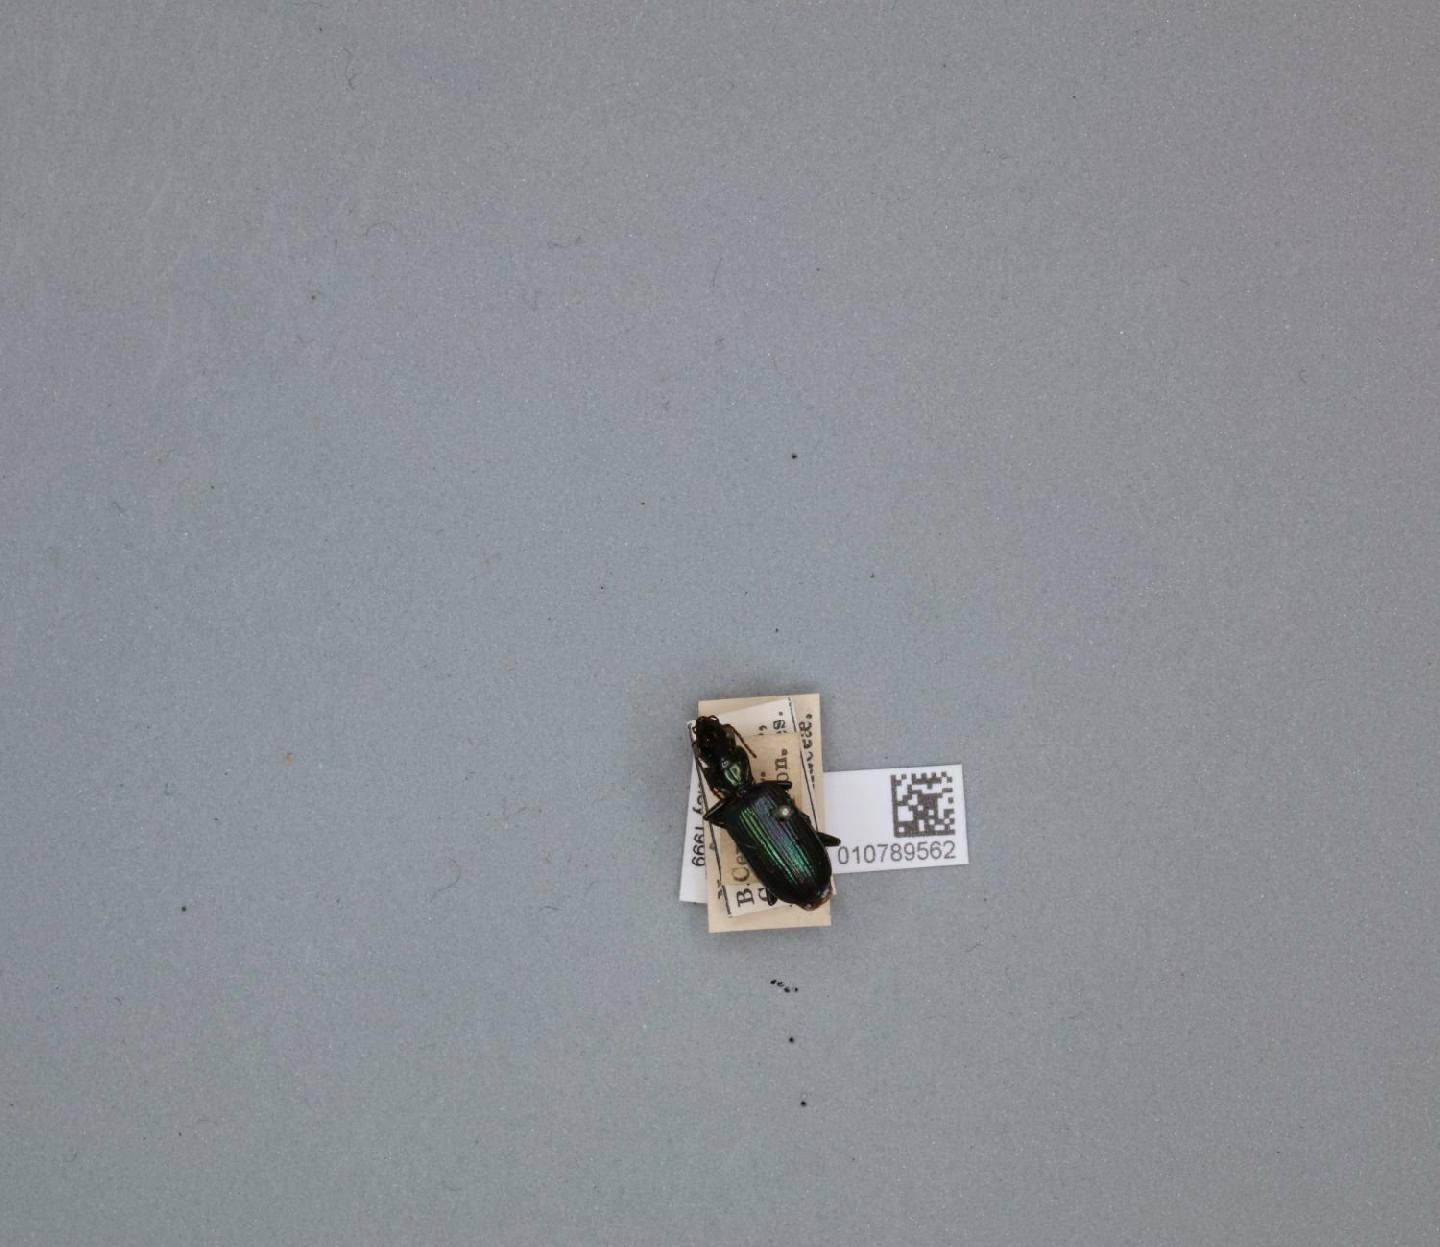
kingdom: Animalia
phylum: Arthropoda
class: Insecta
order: Coleoptera
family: Carabidae
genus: Catascopus
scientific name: Catascopus validus
